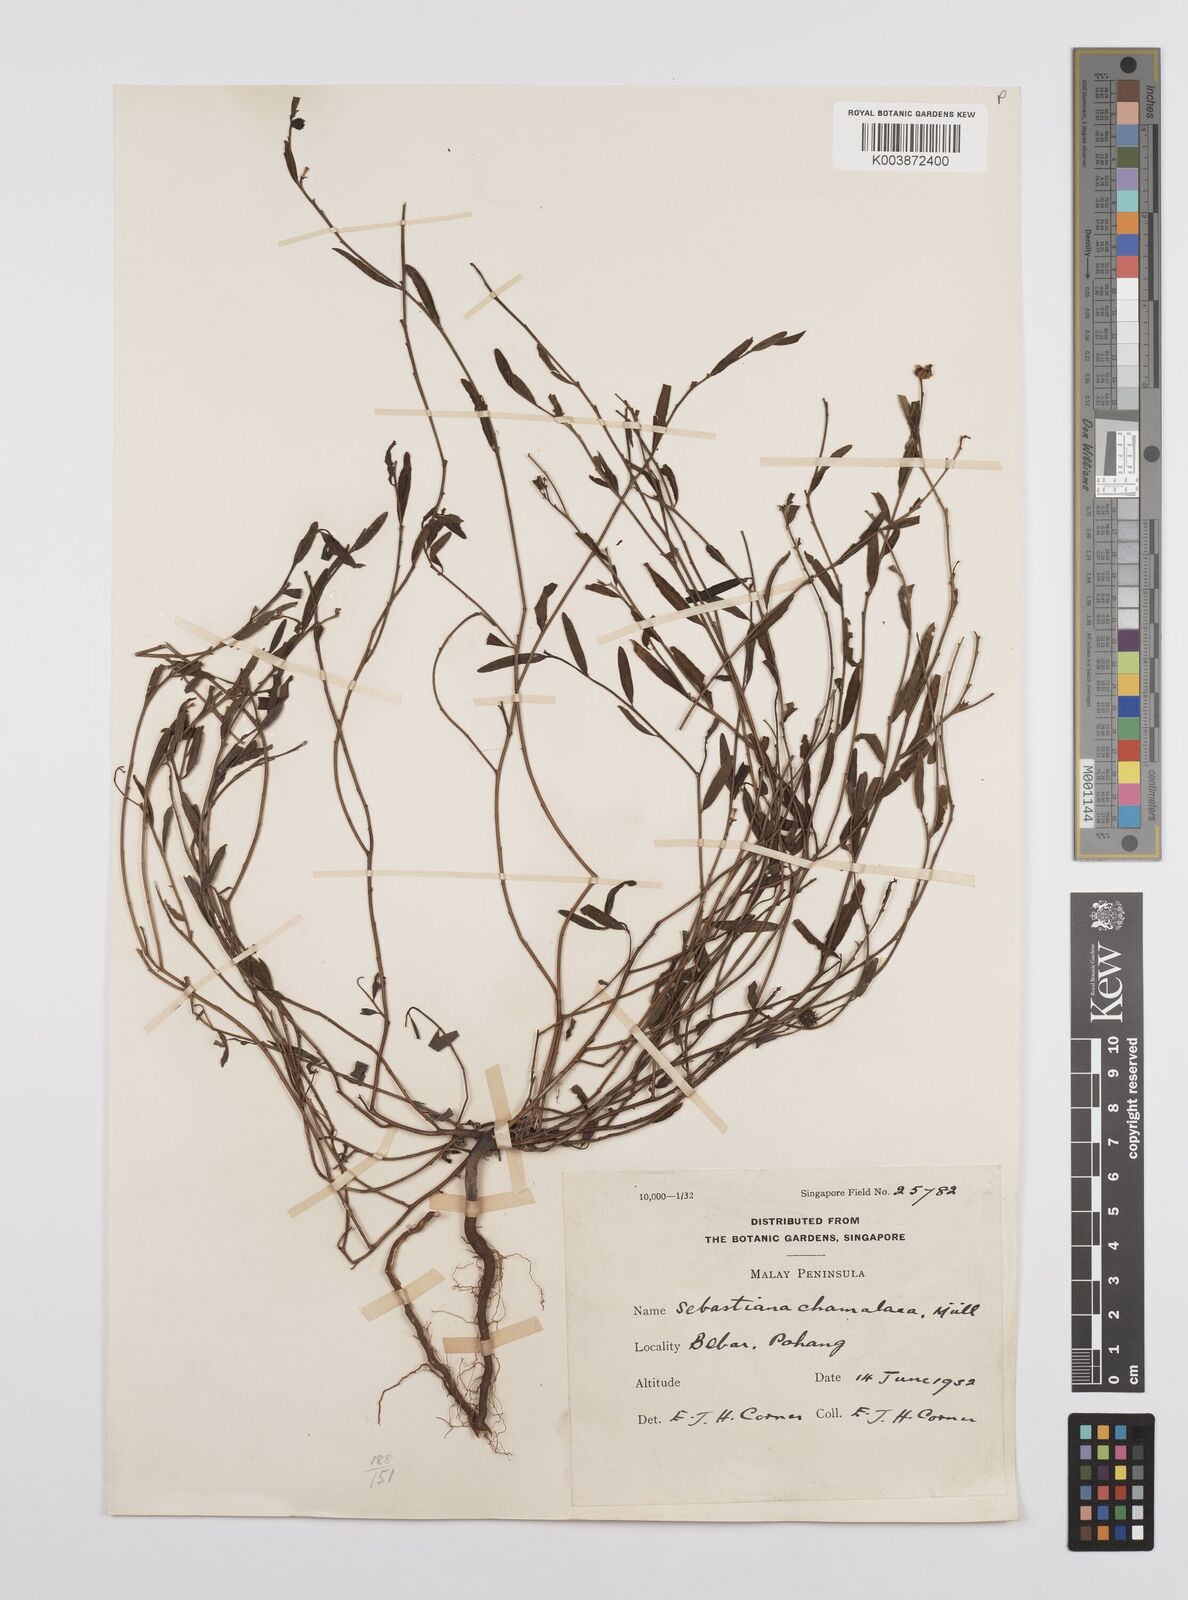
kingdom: Plantae
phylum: Tracheophyta
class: Magnoliopsida
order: Malpighiales
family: Euphorbiaceae
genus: Microstachys
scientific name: Microstachys chamaelea
